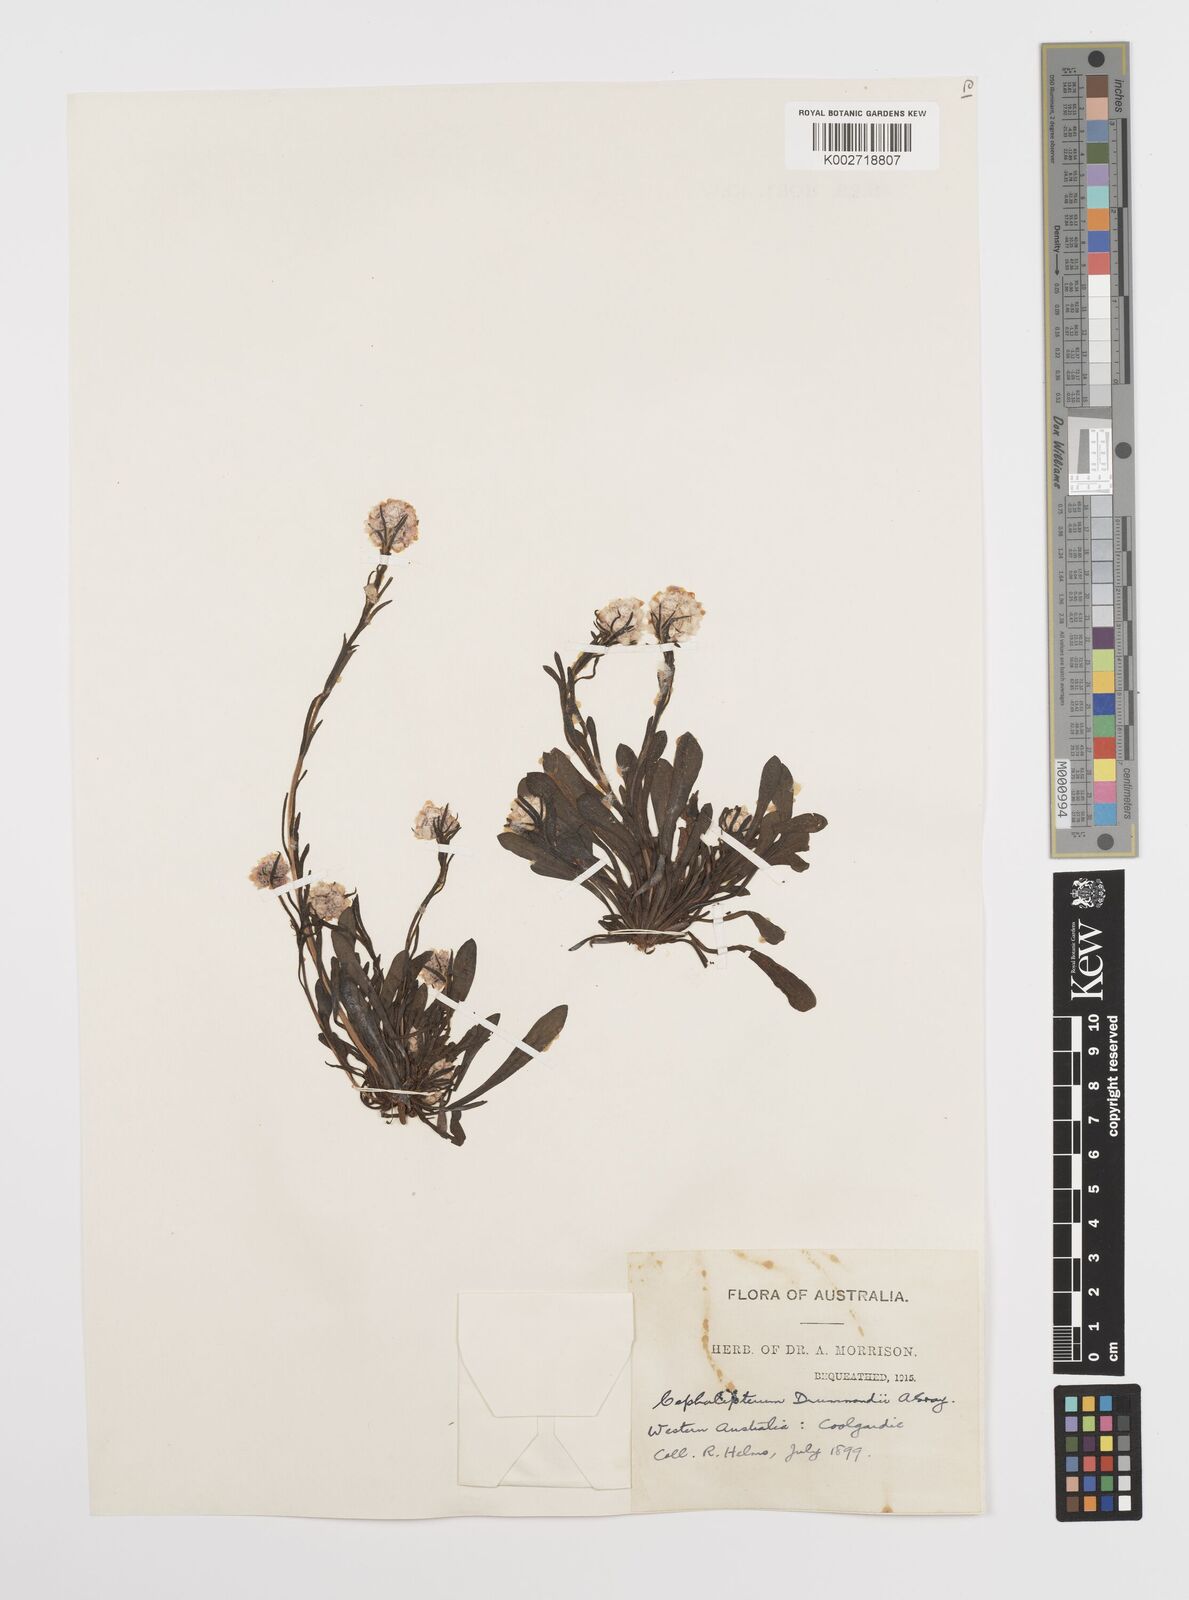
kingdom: Plantae
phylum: Tracheophyta
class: Magnoliopsida
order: Asterales
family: Asteraceae
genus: Cephalipterum
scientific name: Cephalipterum drummondii
